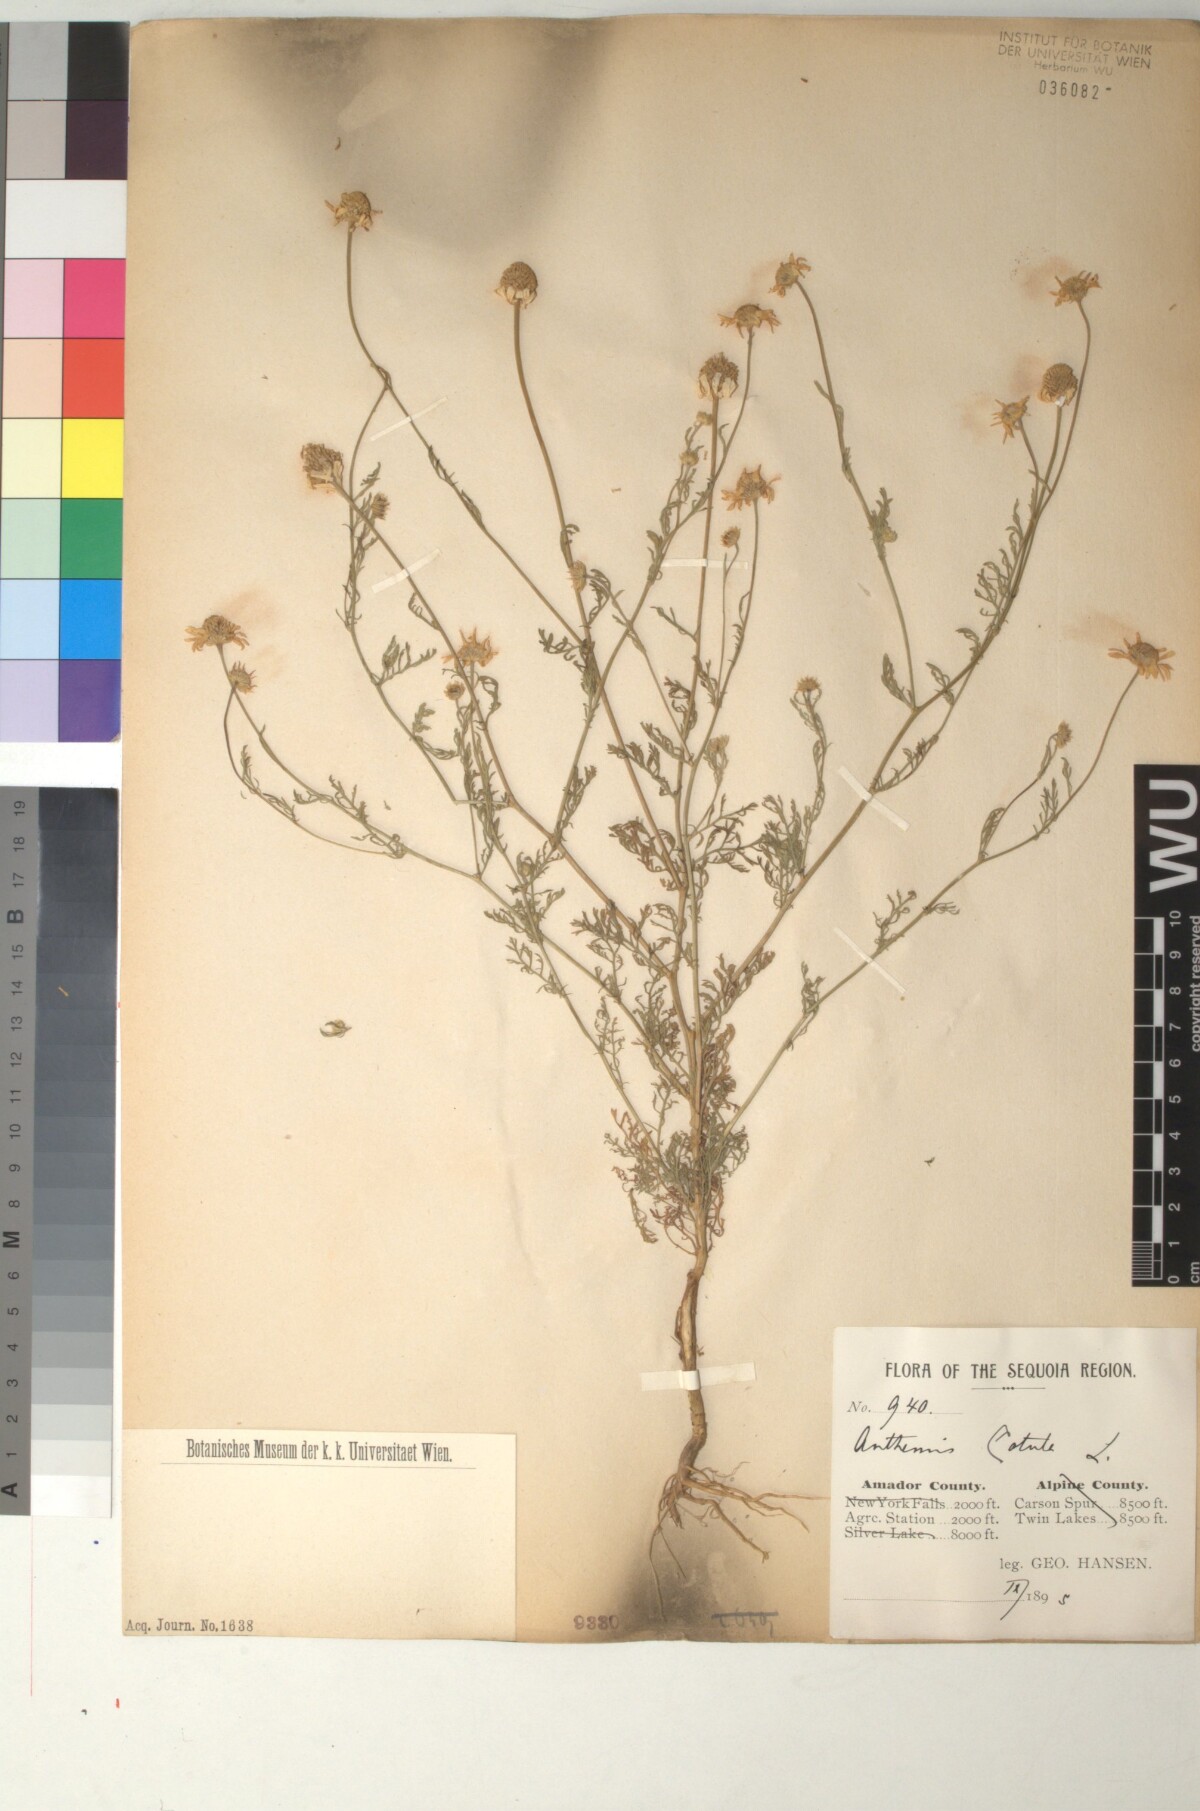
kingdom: Plantae
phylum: Tracheophyta
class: Magnoliopsida
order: Asterales
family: Asteraceae
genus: Anthemis
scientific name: Anthemis cotula
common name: Stinking chamomile
